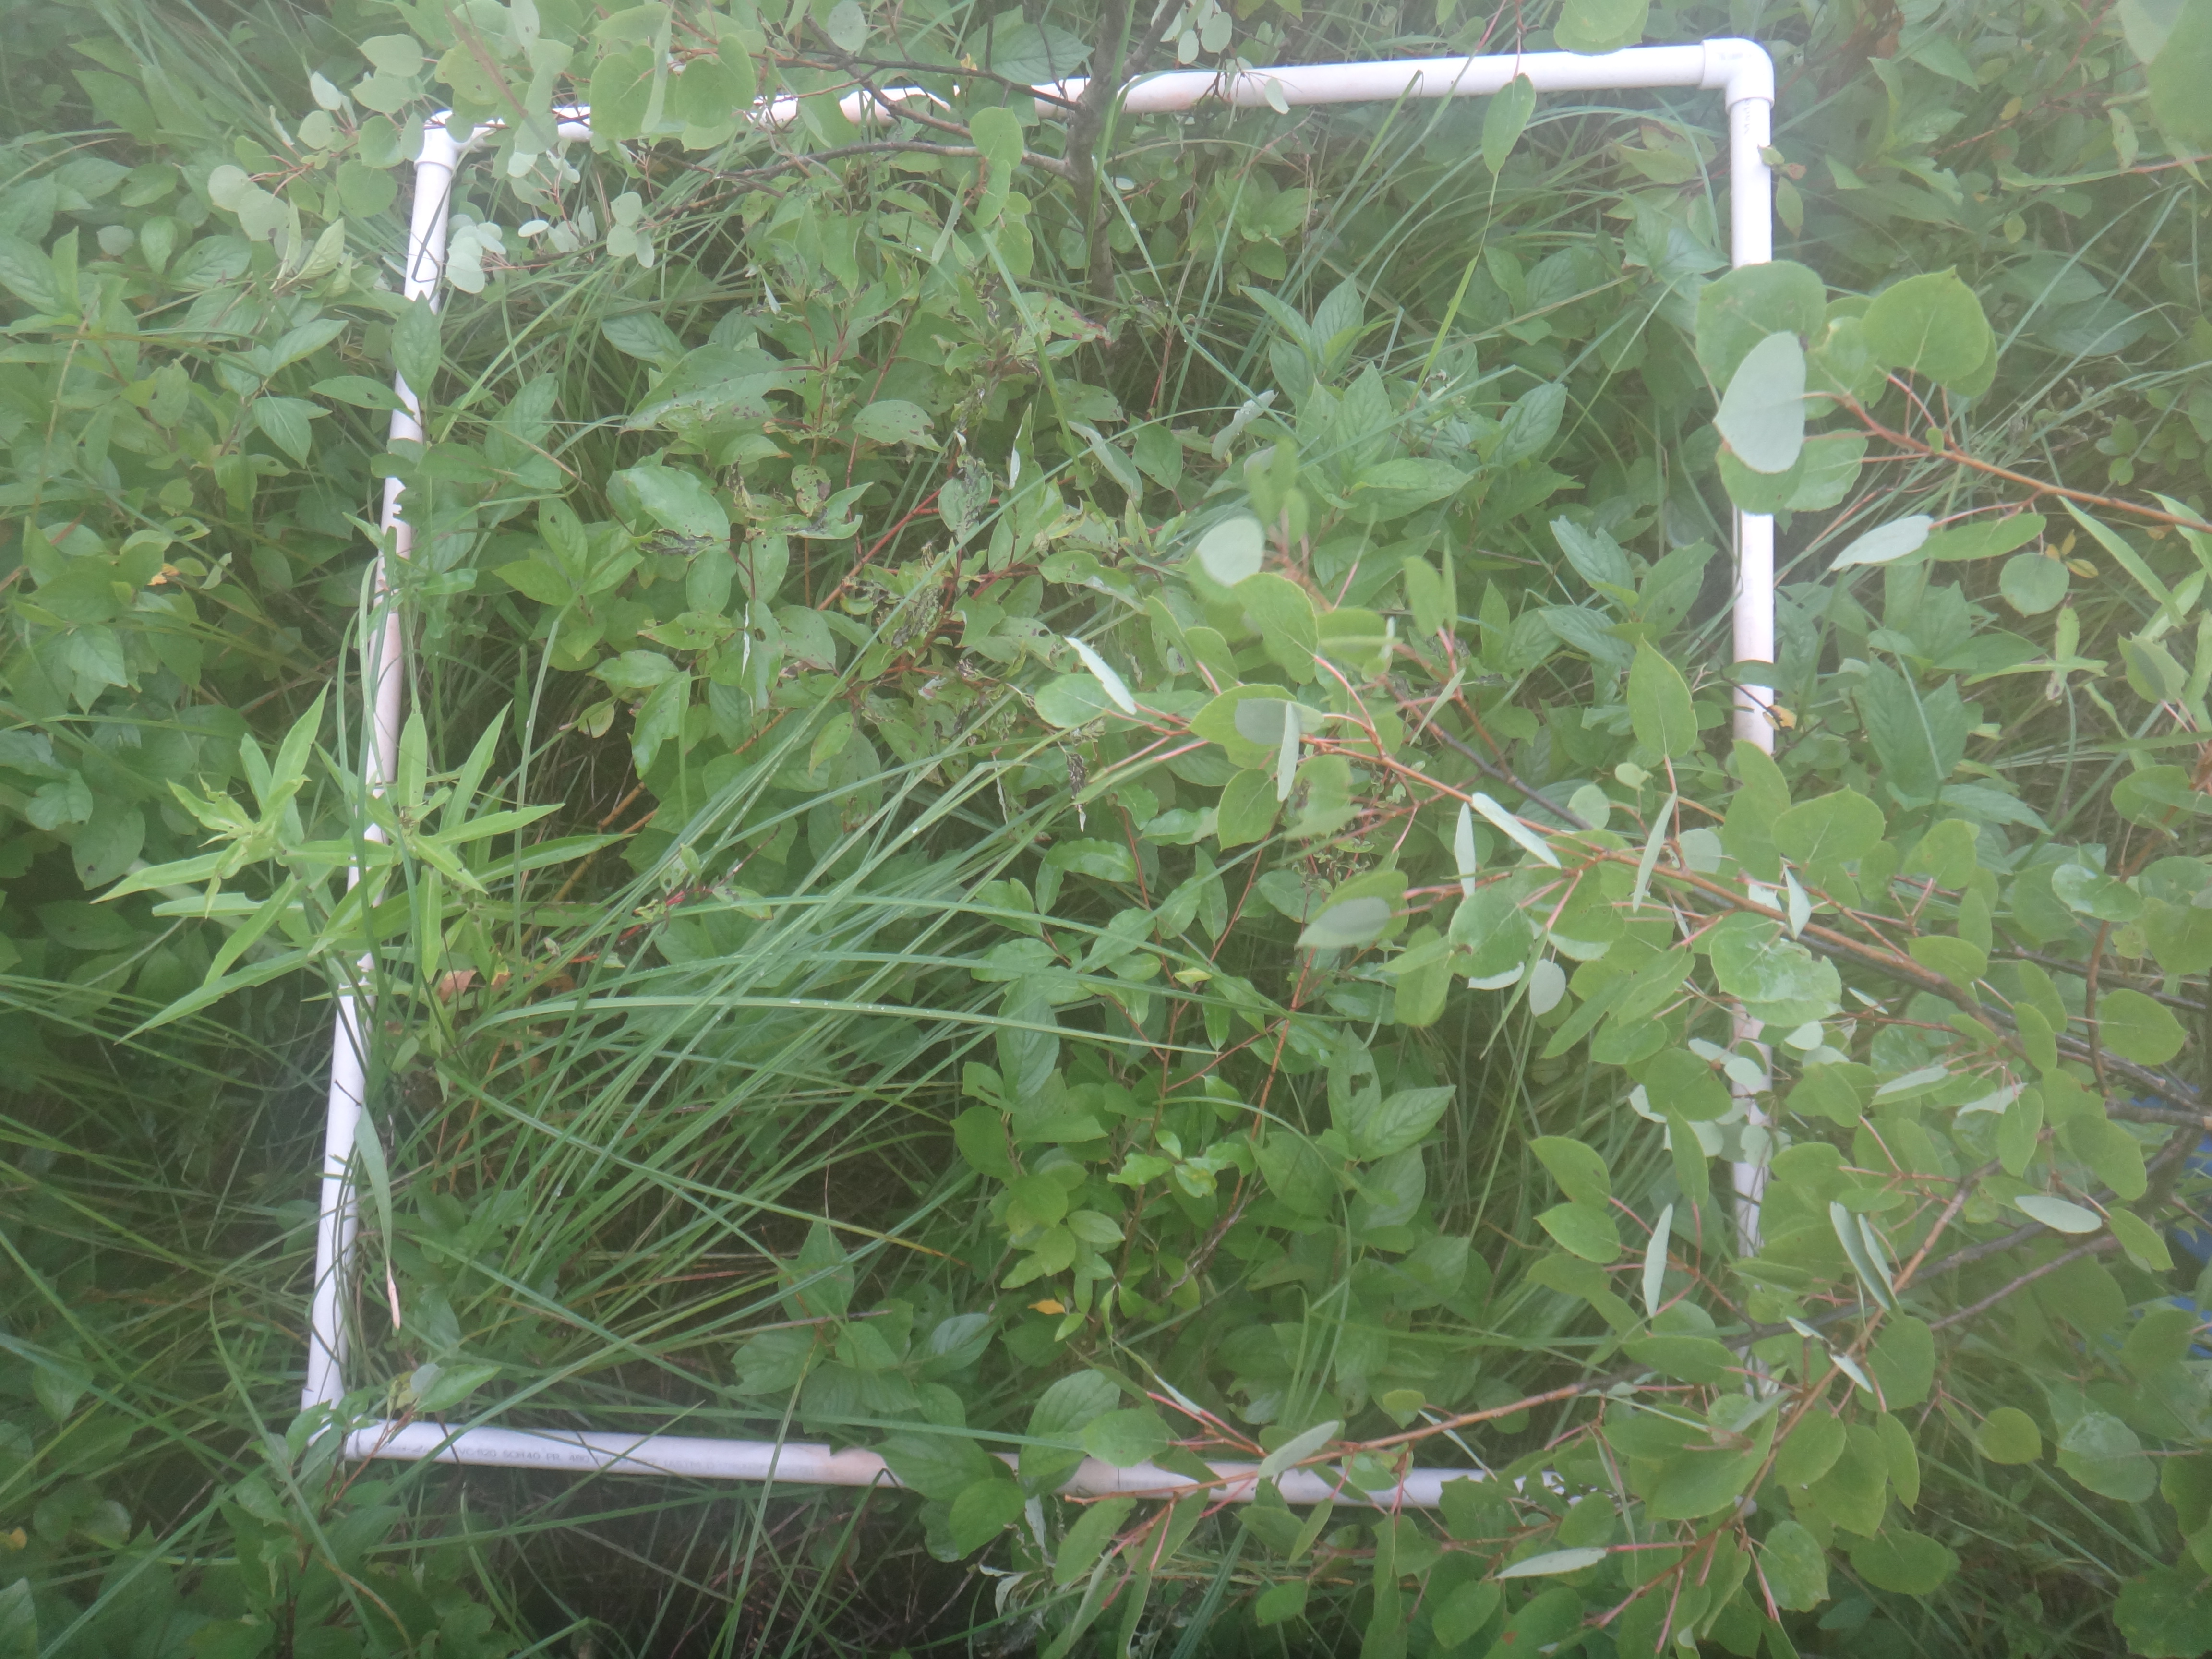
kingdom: Plantae
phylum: Tracheophyta
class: Magnoliopsida
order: Asterales
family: Asteraceae
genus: Eutrochium
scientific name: Eutrochium maculatum
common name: Spotted joe pye weed
